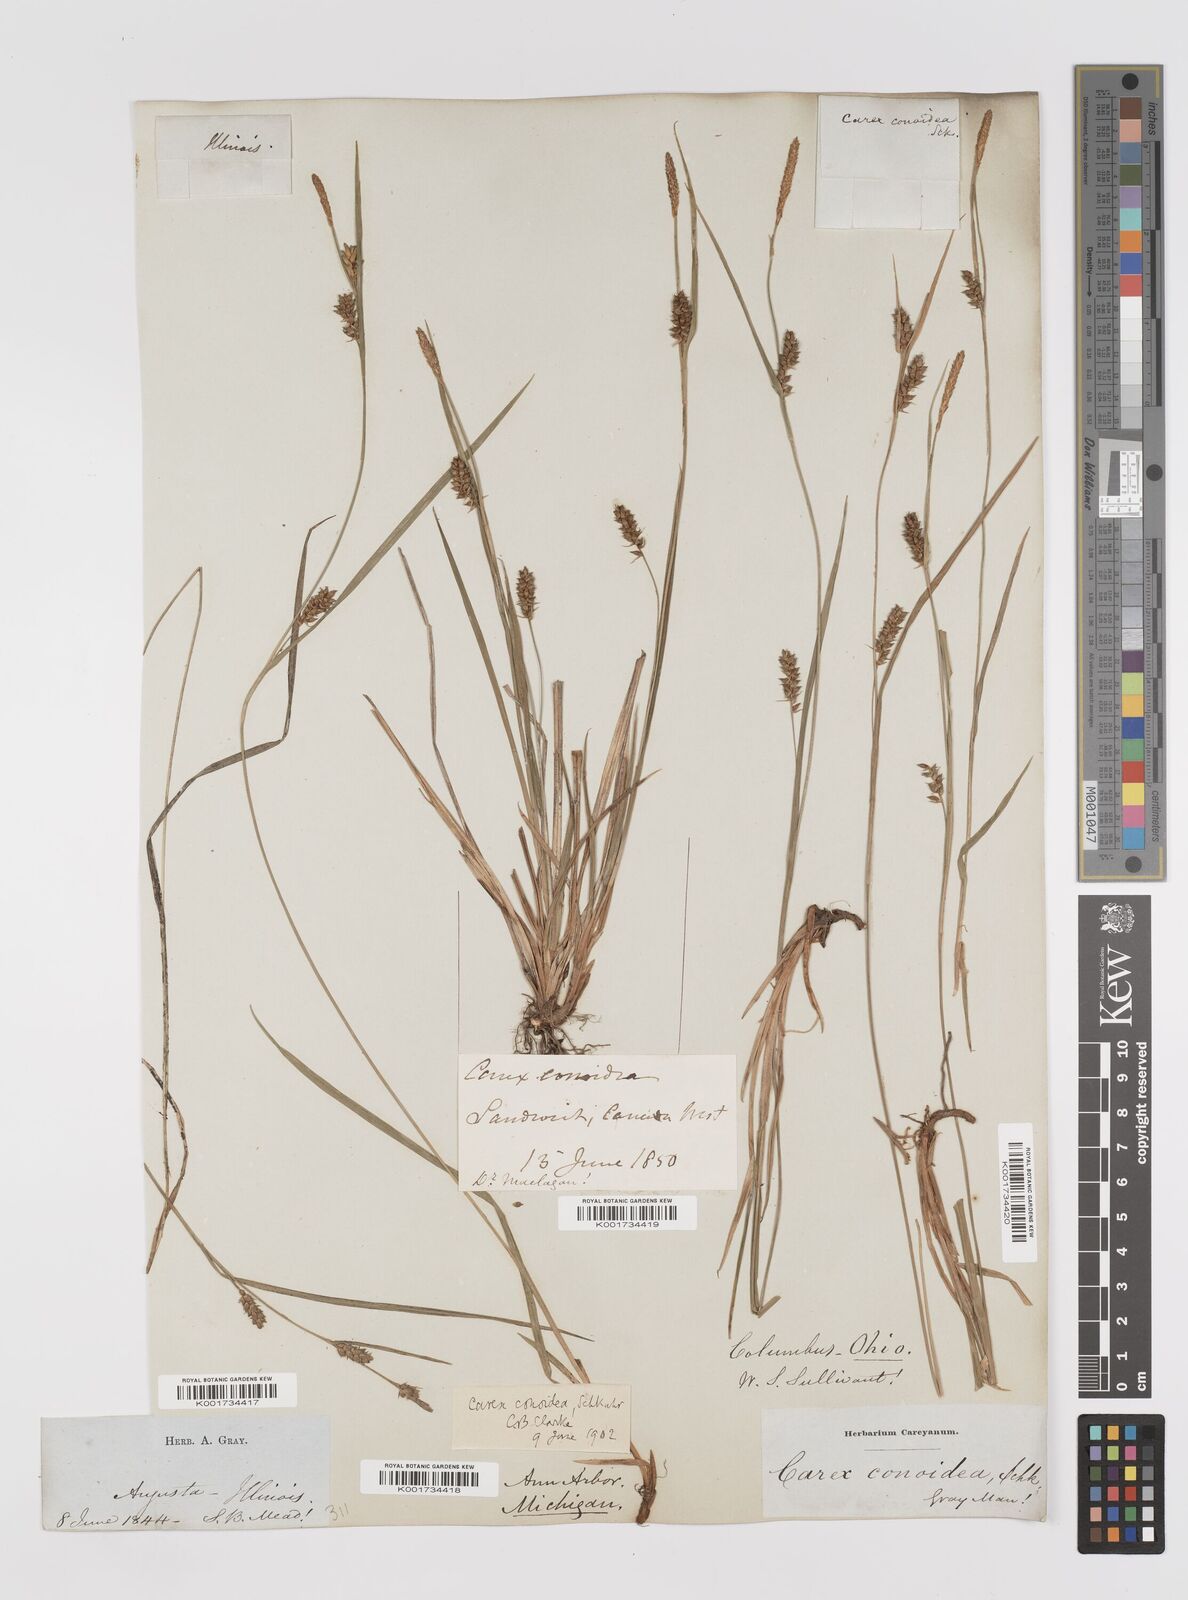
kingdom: Plantae
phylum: Tracheophyta
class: Liliopsida
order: Poales
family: Cyperaceae
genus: Carex
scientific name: Carex conoidea
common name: Cone shaped sedge
